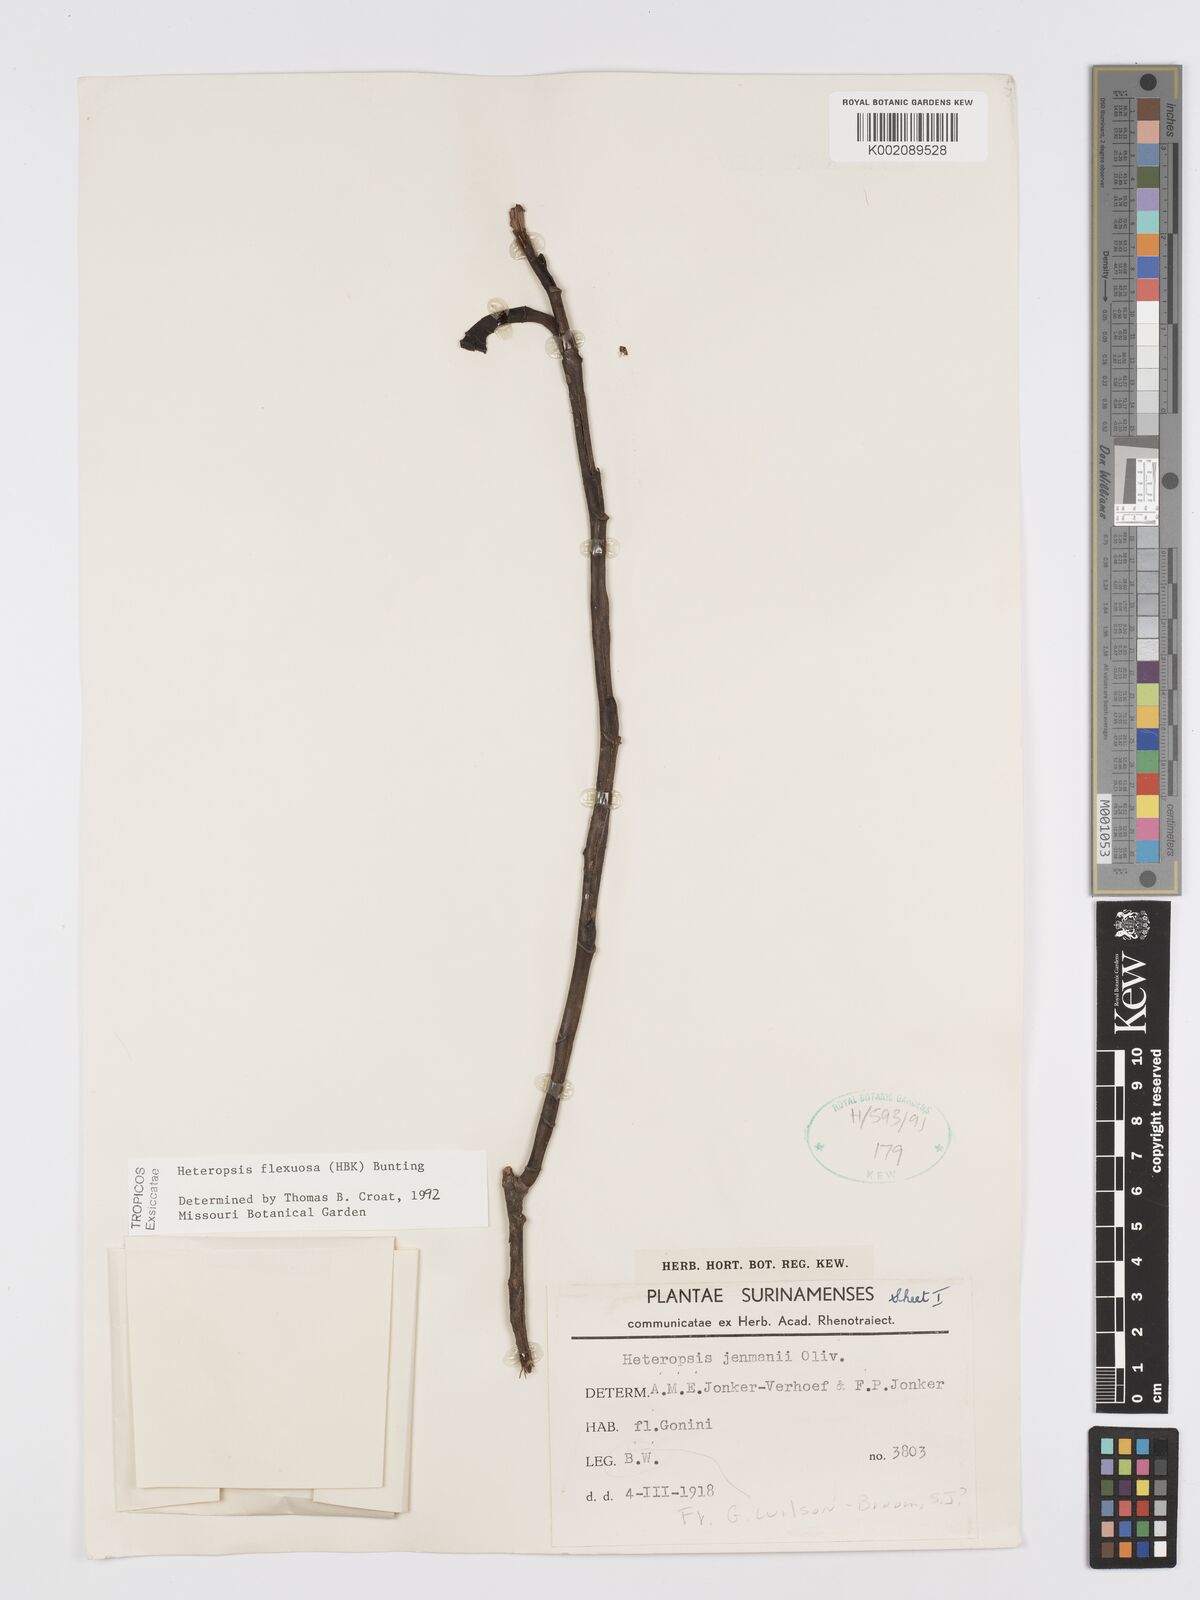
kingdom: Plantae
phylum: Tracheophyta
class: Liliopsida
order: Alismatales
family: Araceae
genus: Heteropsis
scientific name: Heteropsis flexuosa
